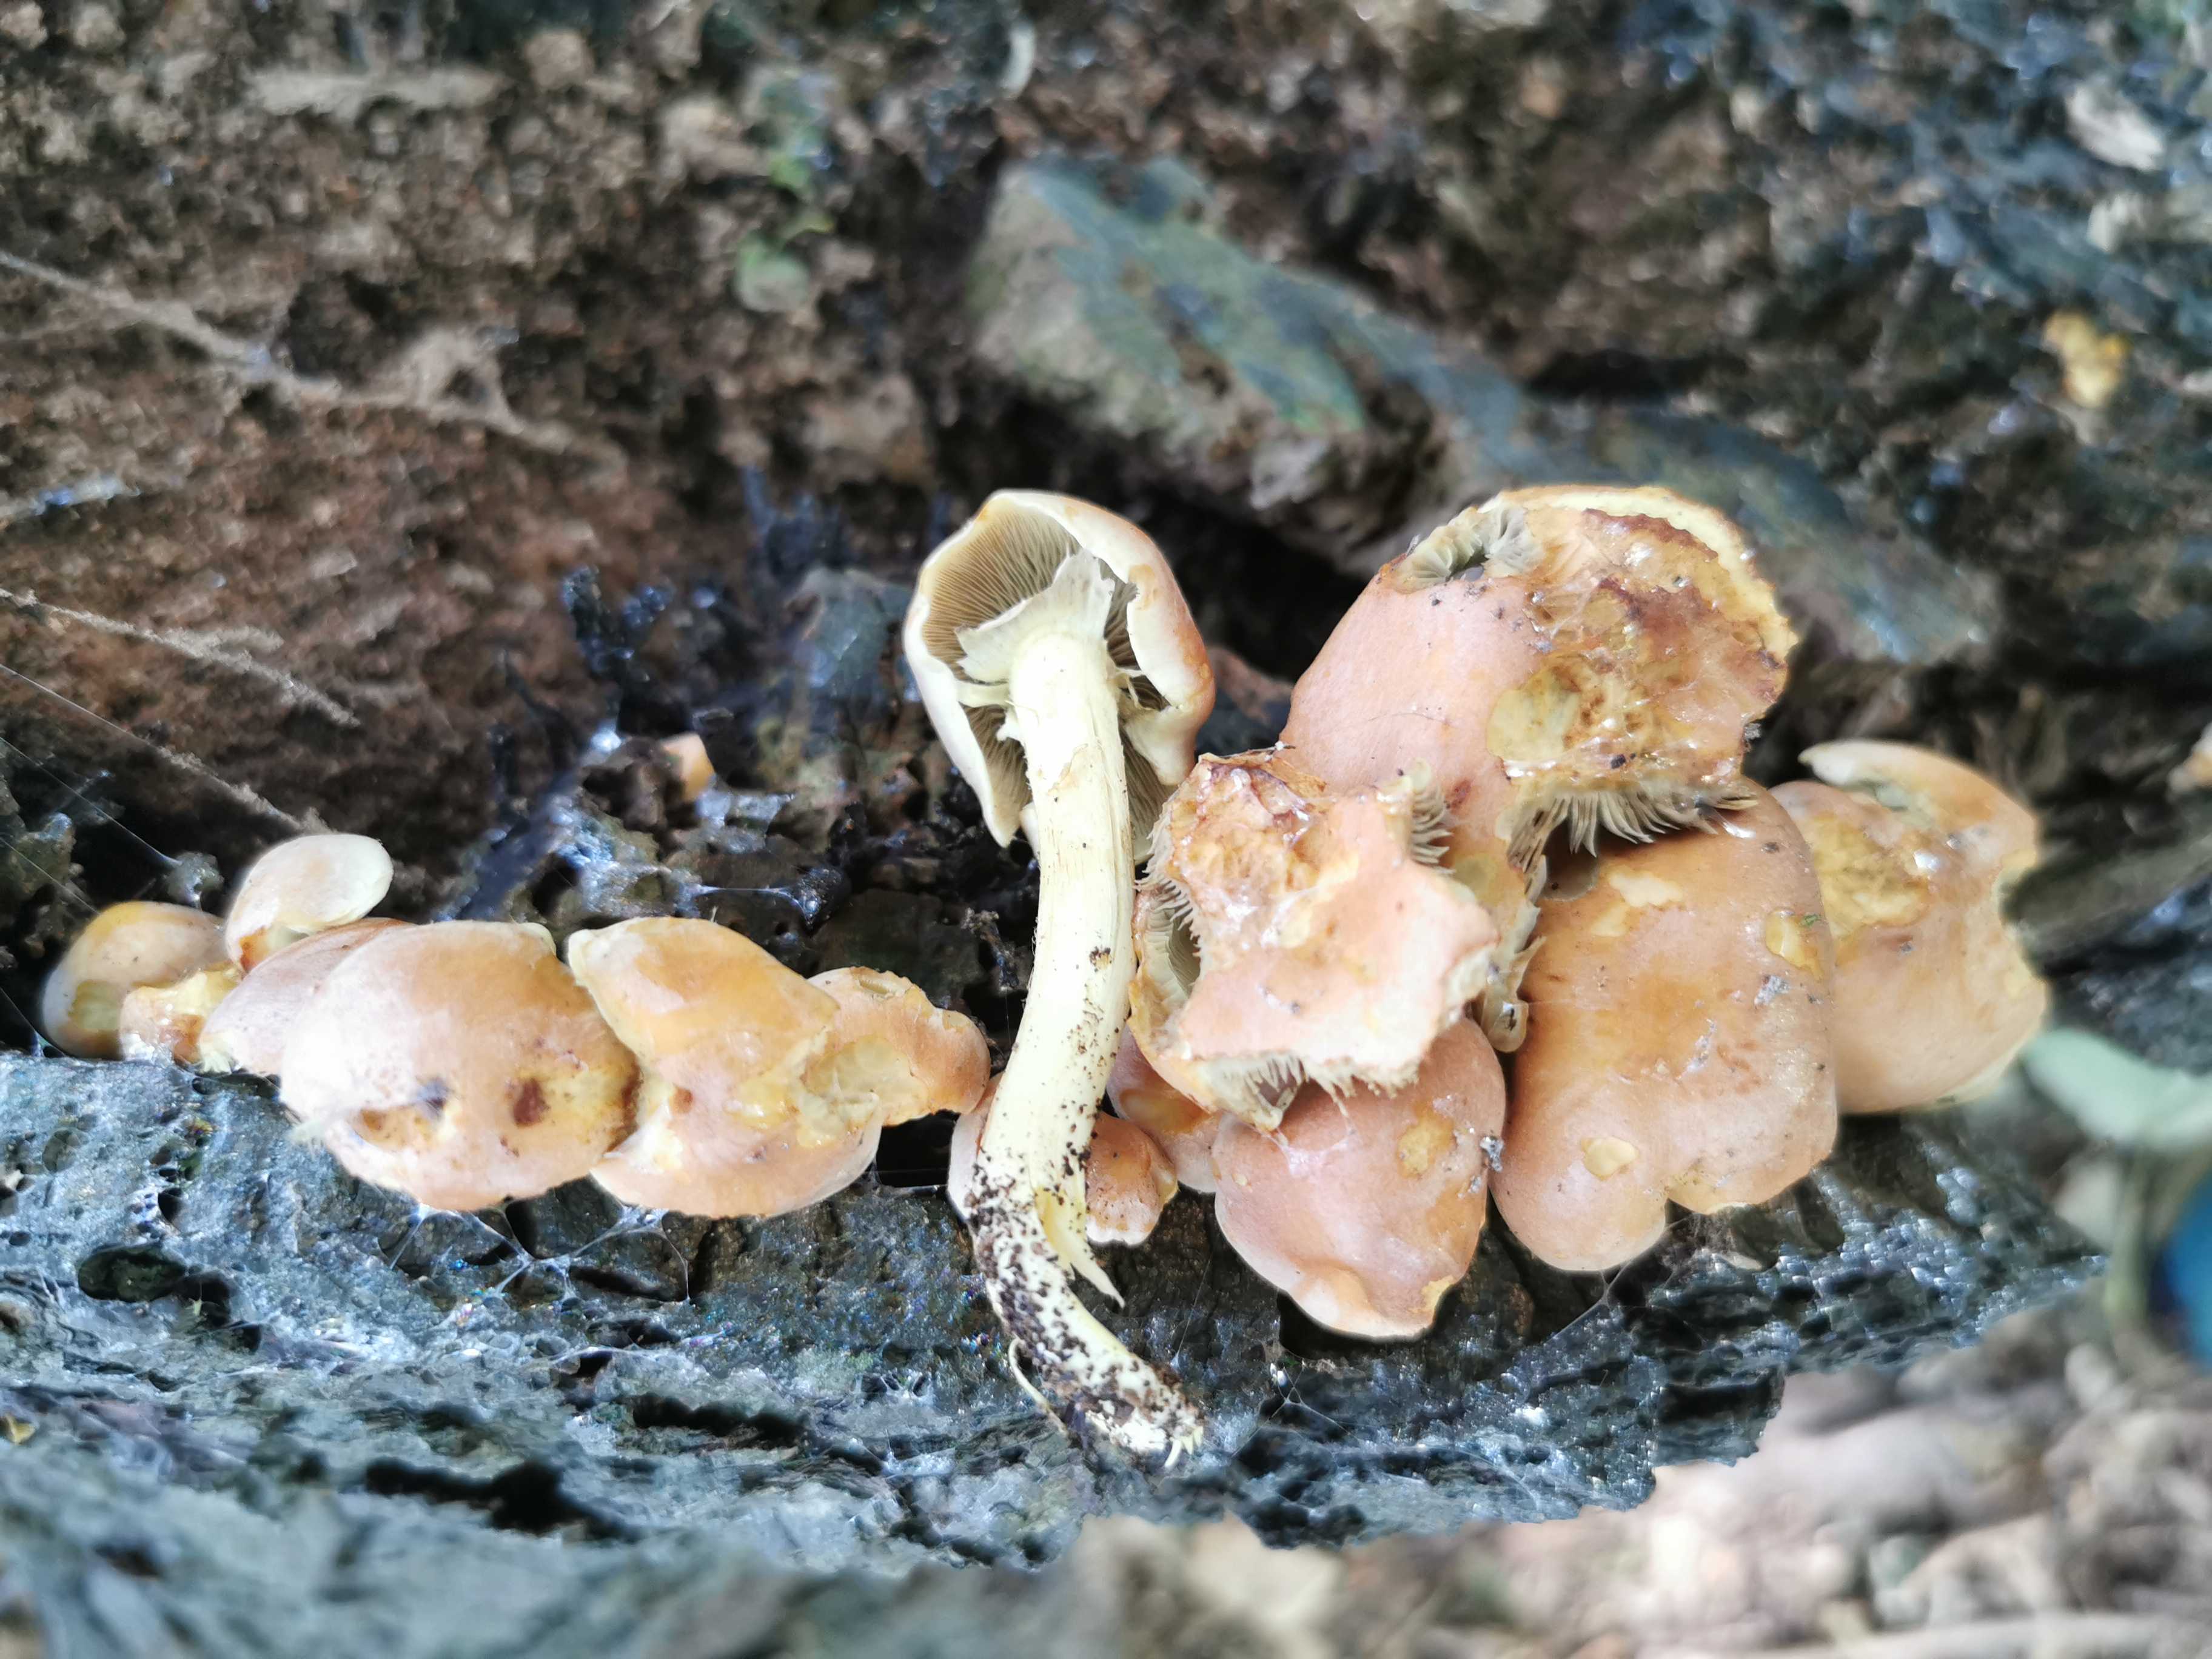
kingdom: Fungi
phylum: Basidiomycota
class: Agaricomycetes
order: Agaricales
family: Strophariaceae
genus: Hypholoma
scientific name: Hypholoma fasciculare
